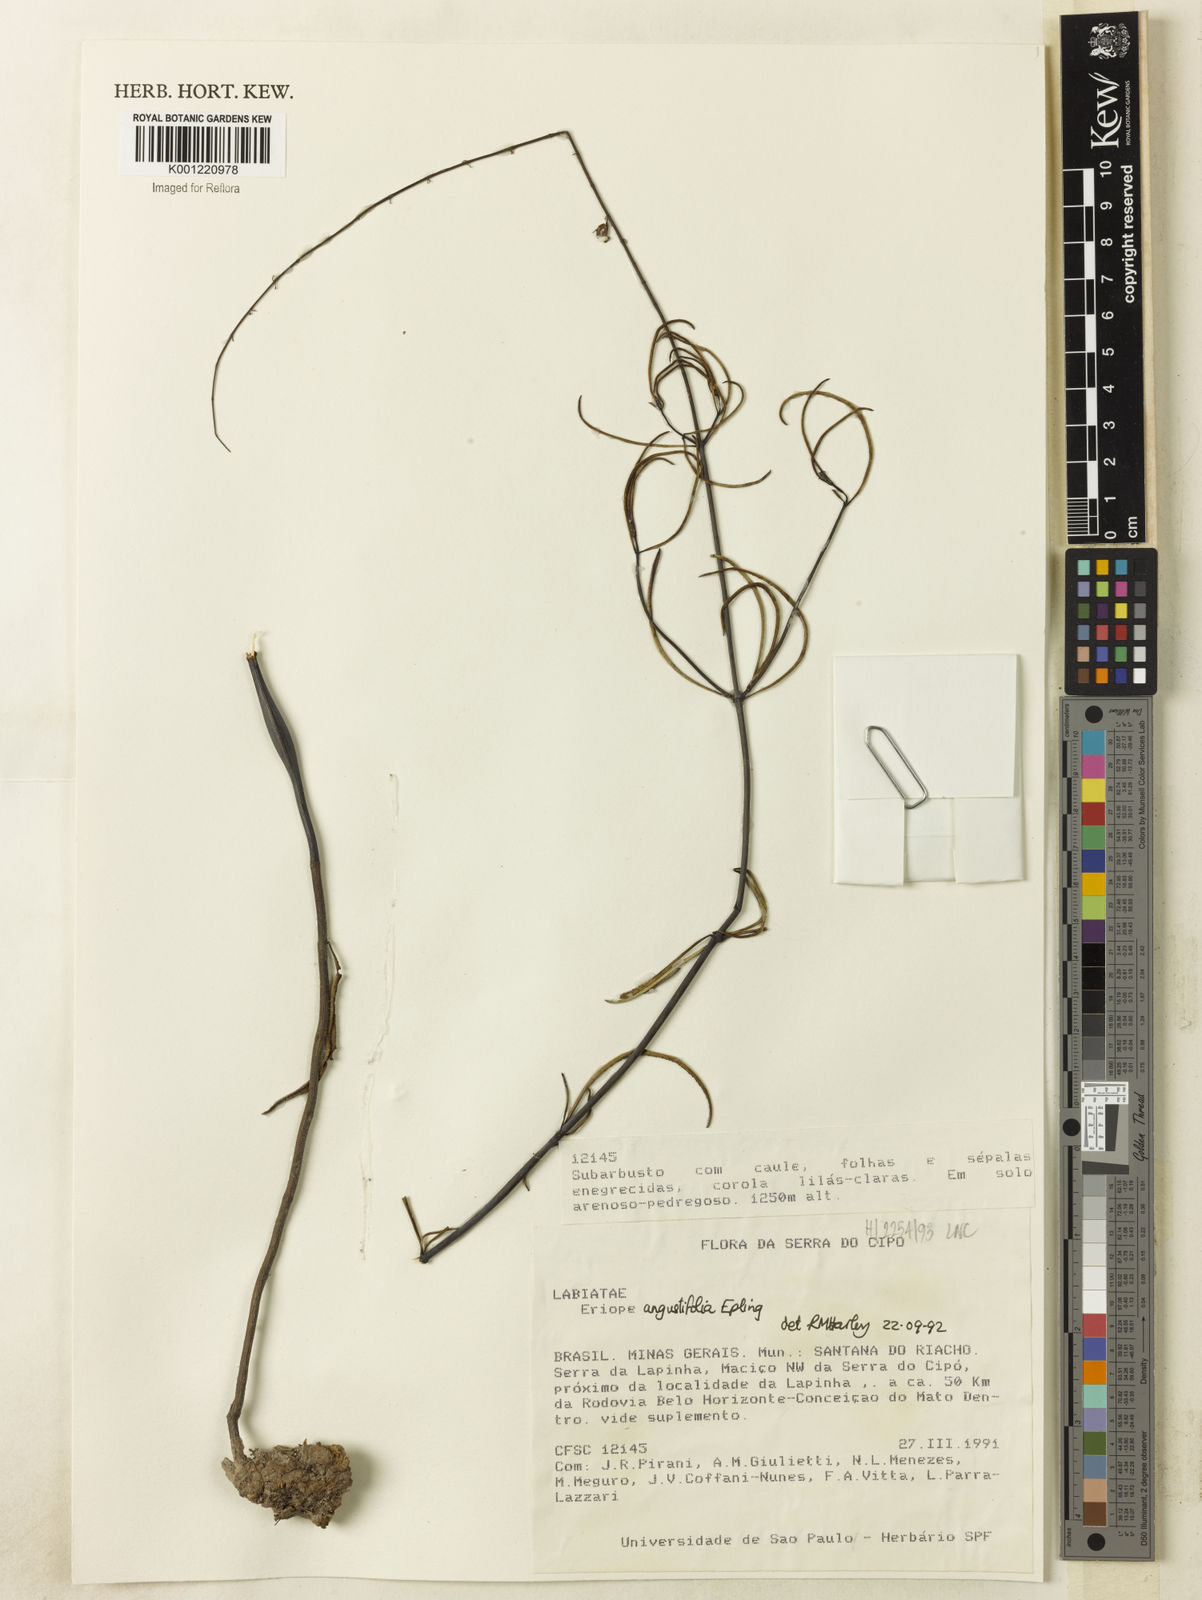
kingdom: Plantae
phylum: Tracheophyta
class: Magnoliopsida
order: Lamiales
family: Lamiaceae
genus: Eriope
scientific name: Eriope angustifolia
